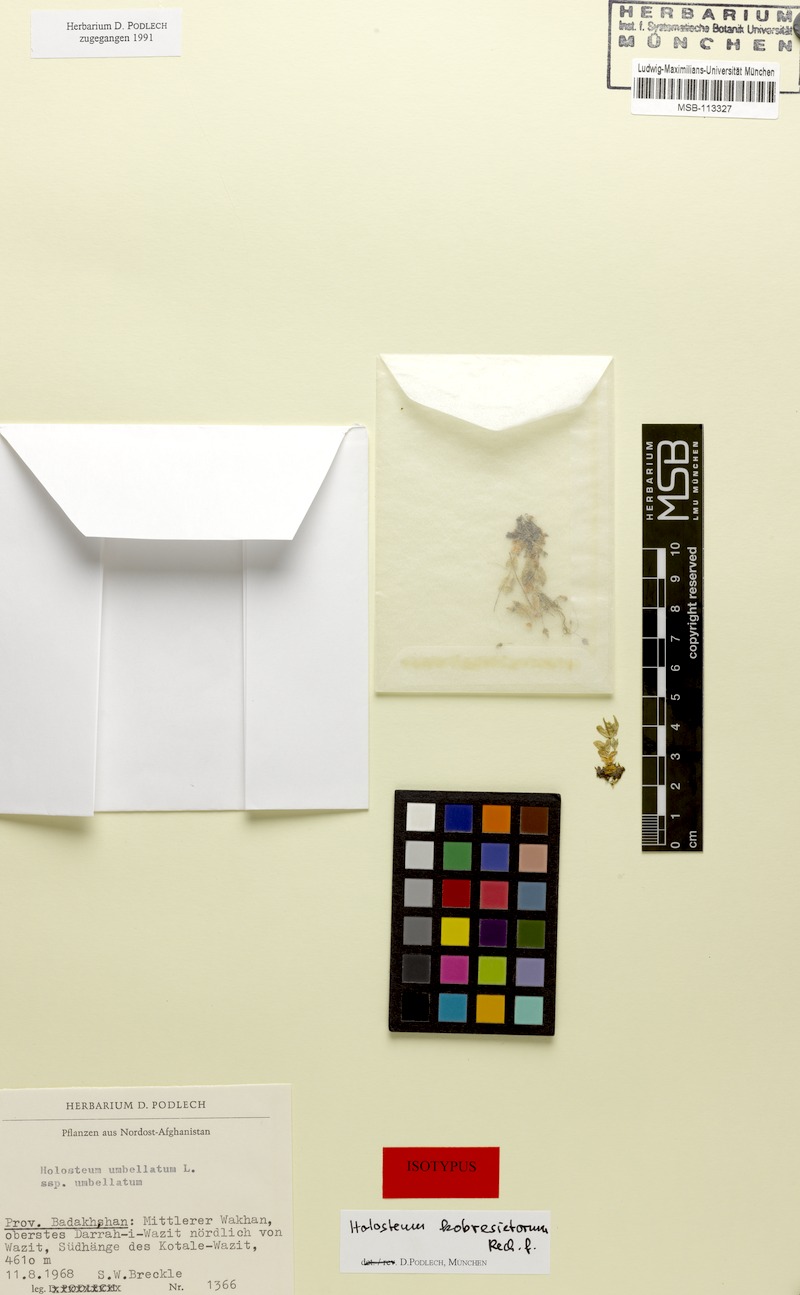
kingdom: Plantae
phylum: Tracheophyta
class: Magnoliopsida
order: Caryophyllales
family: Caryophyllaceae
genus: Stellaria
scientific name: Stellaria irrigua
